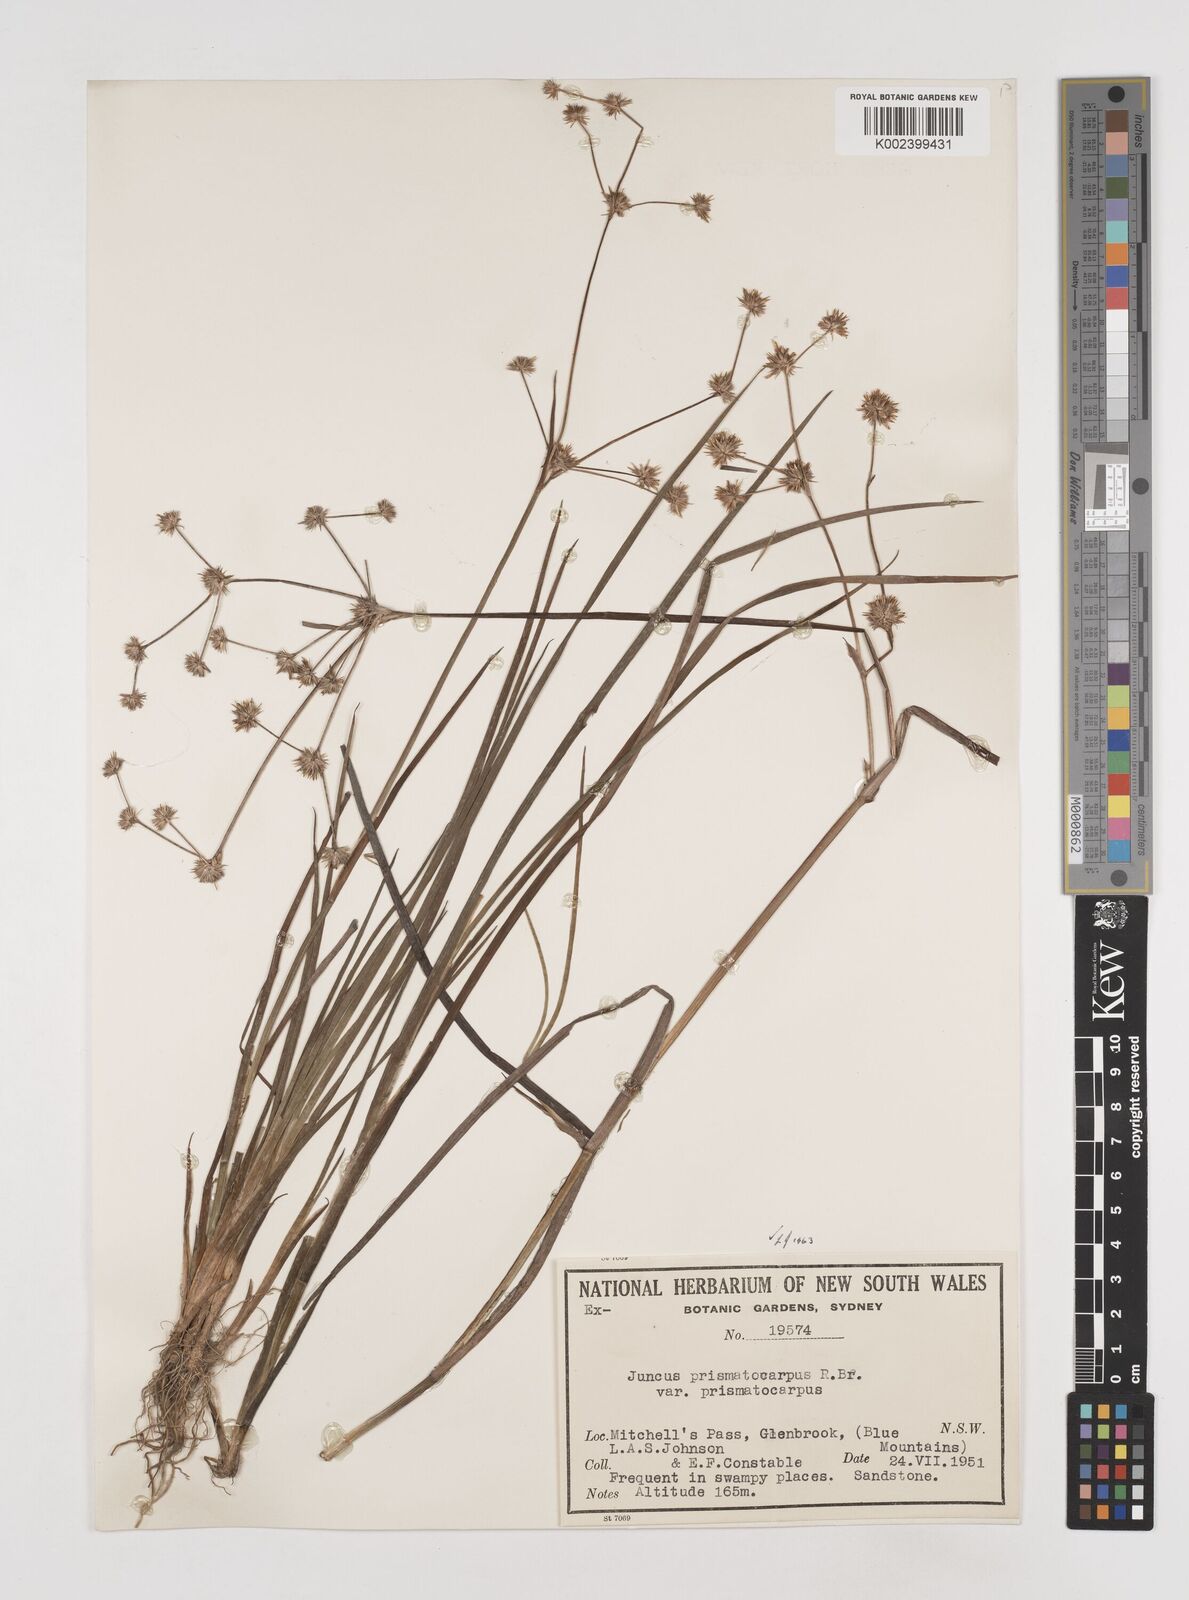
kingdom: Plantae
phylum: Tracheophyta
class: Liliopsida
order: Poales
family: Juncaceae
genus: Juncus
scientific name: Juncus prismatocarpus
